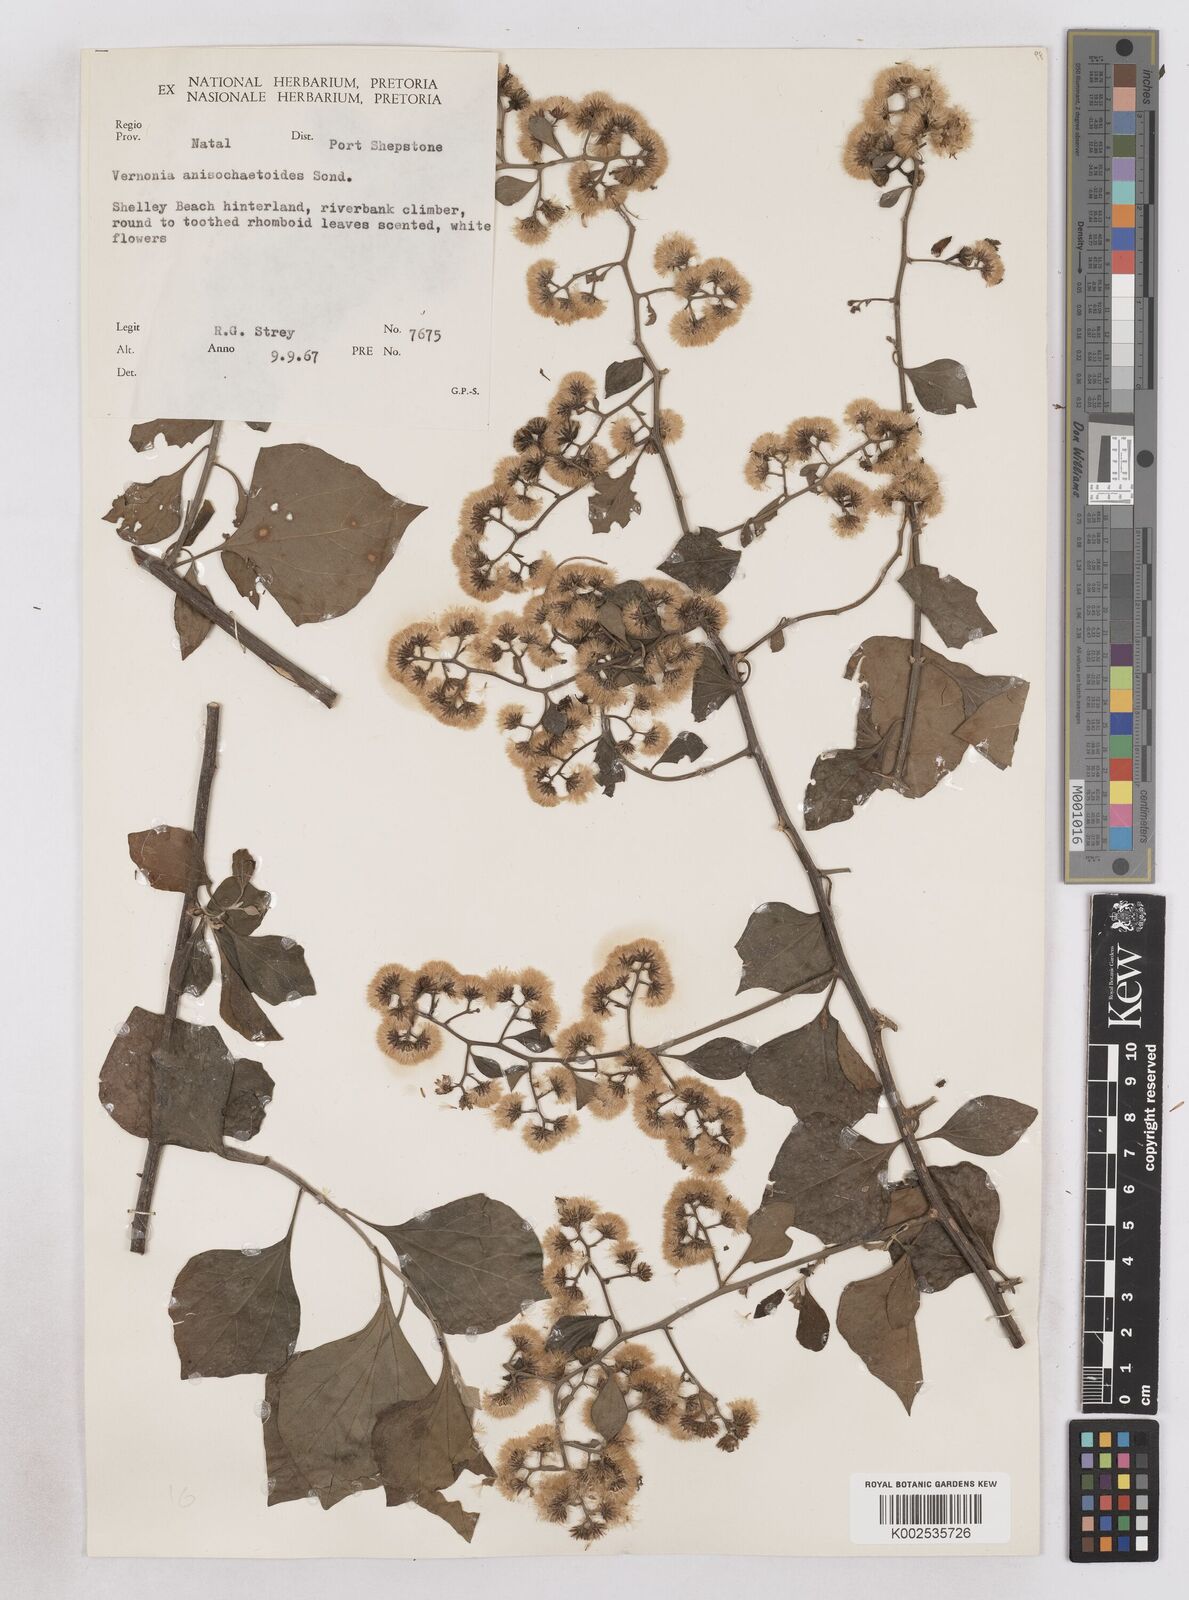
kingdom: Plantae
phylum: Tracheophyta
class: Magnoliopsida
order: Asterales
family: Asteraceae
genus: Distephanus
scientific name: Distephanus anisochaetoides
